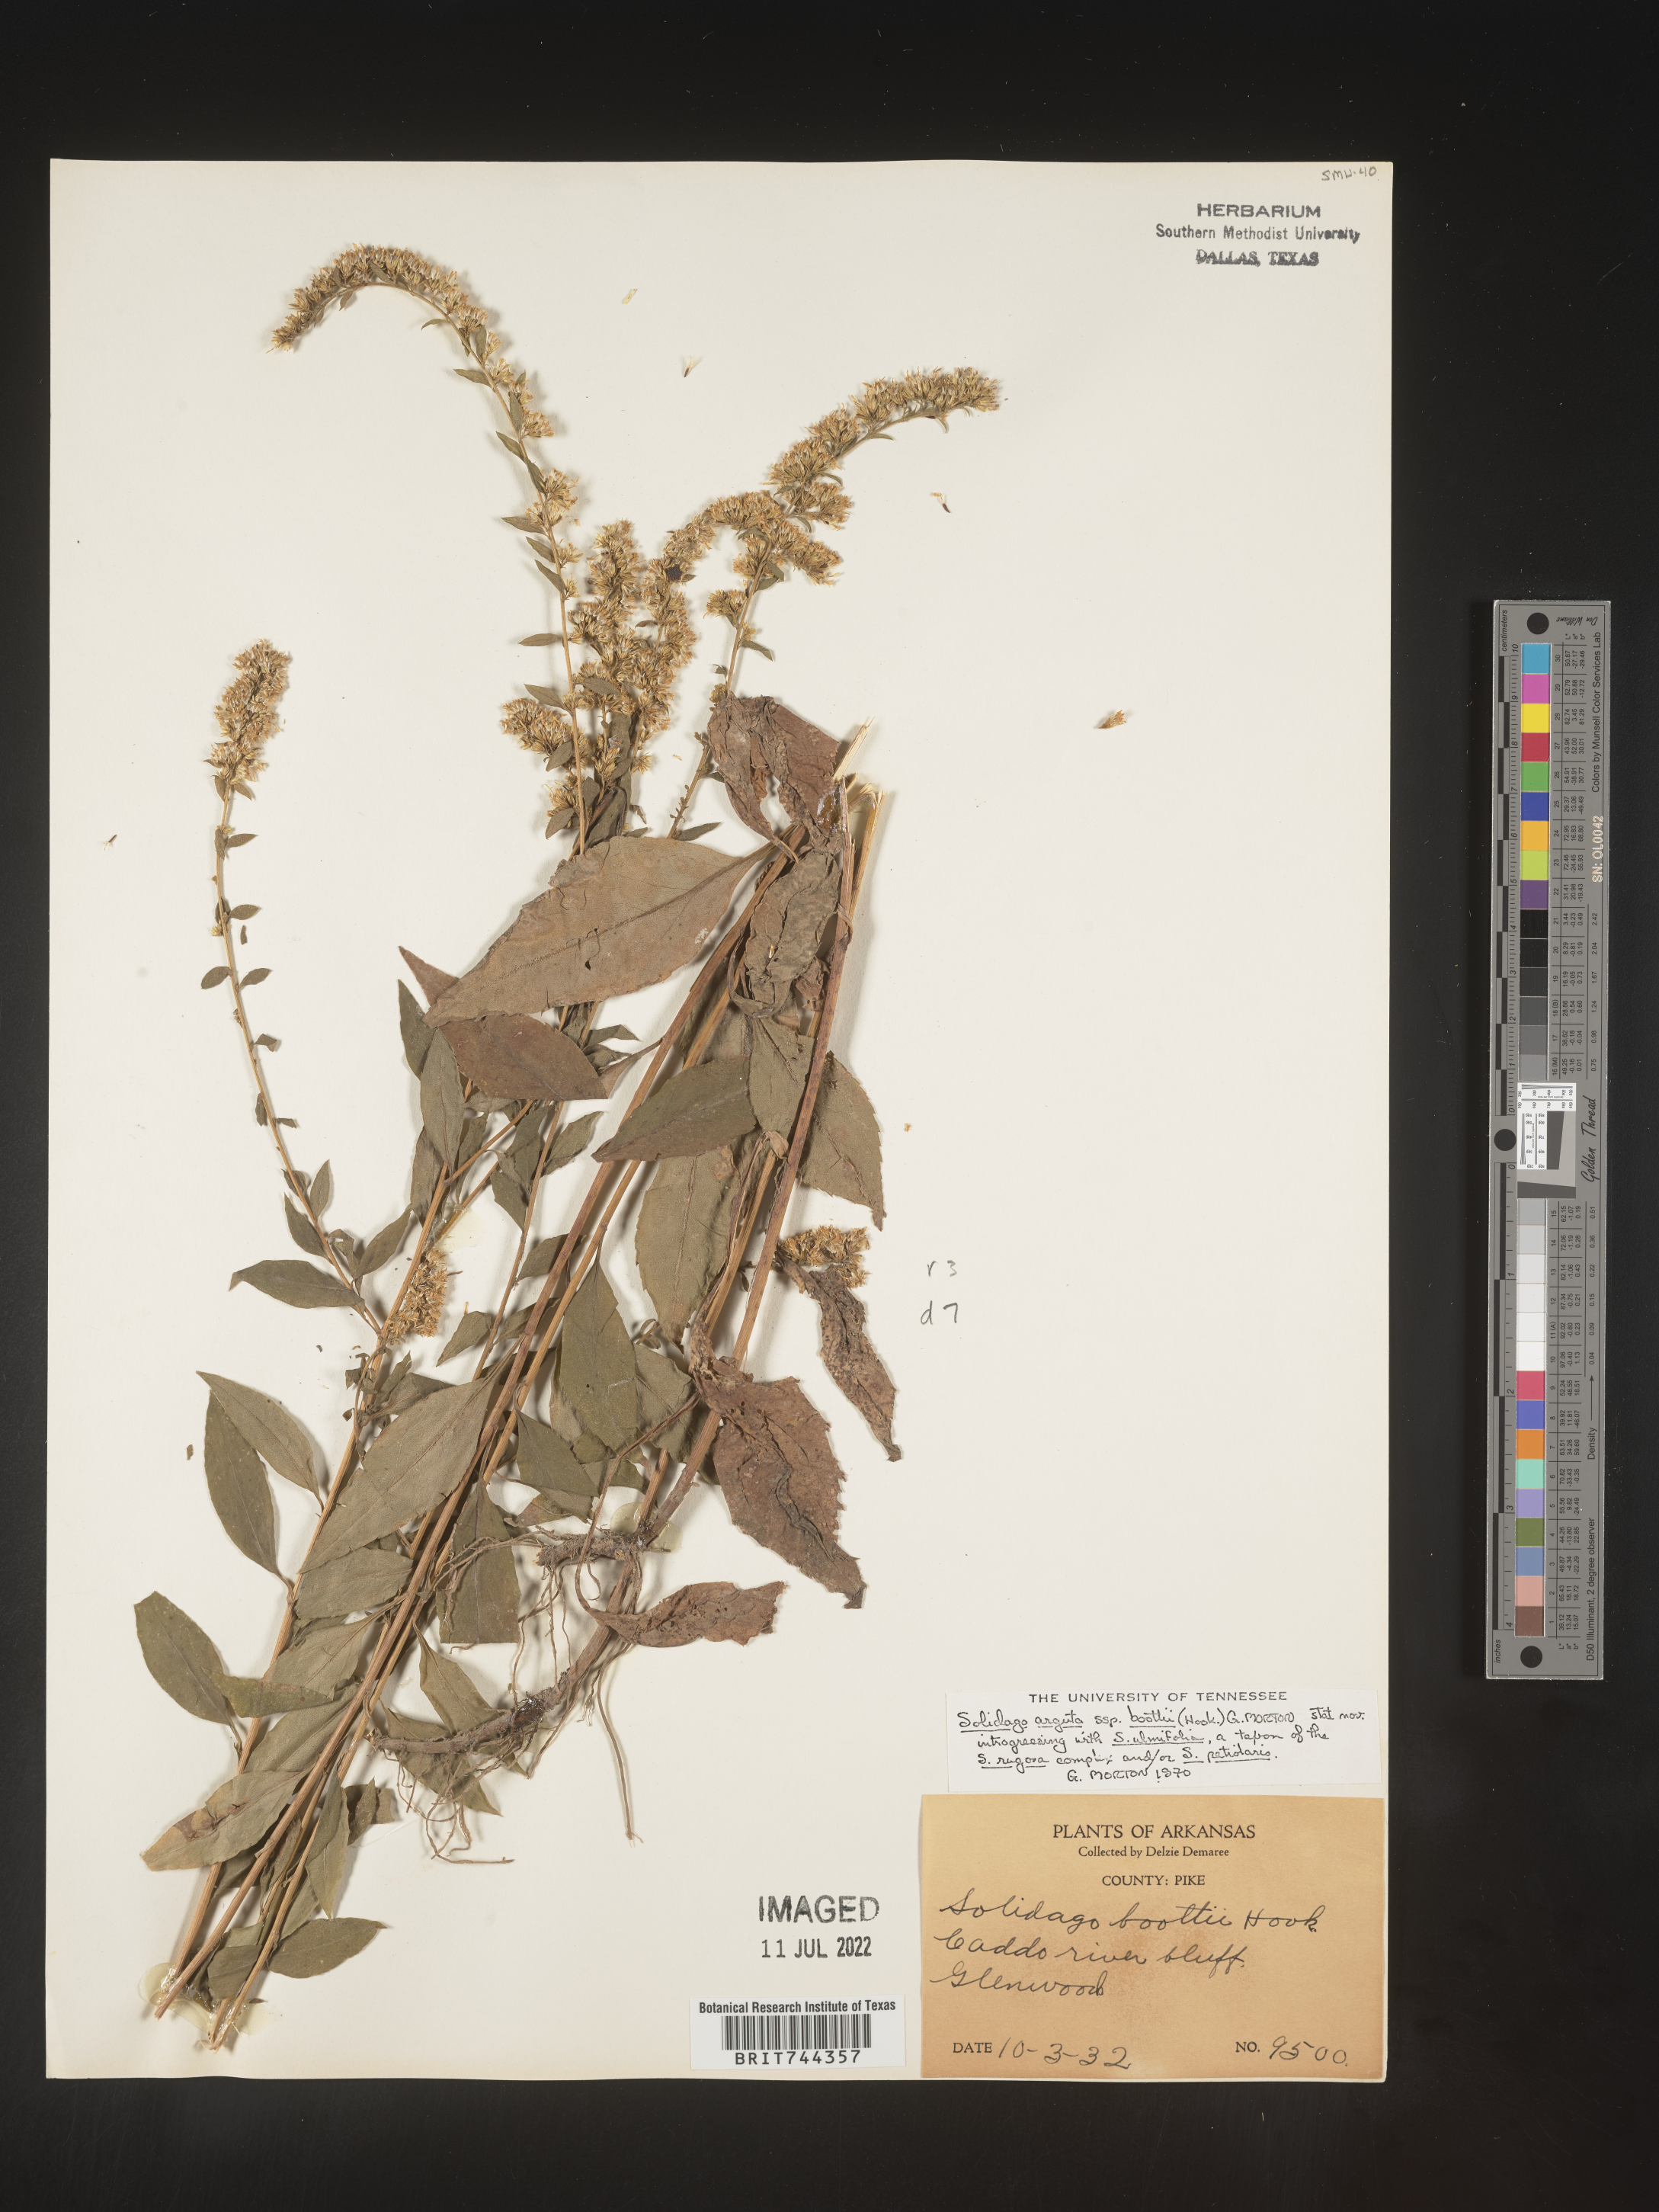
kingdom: Plantae
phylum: Tracheophyta
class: Magnoliopsida
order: Asterales
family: Asteraceae
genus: Solidago
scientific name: Solidago arguta
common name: Atlantic goldenrod
